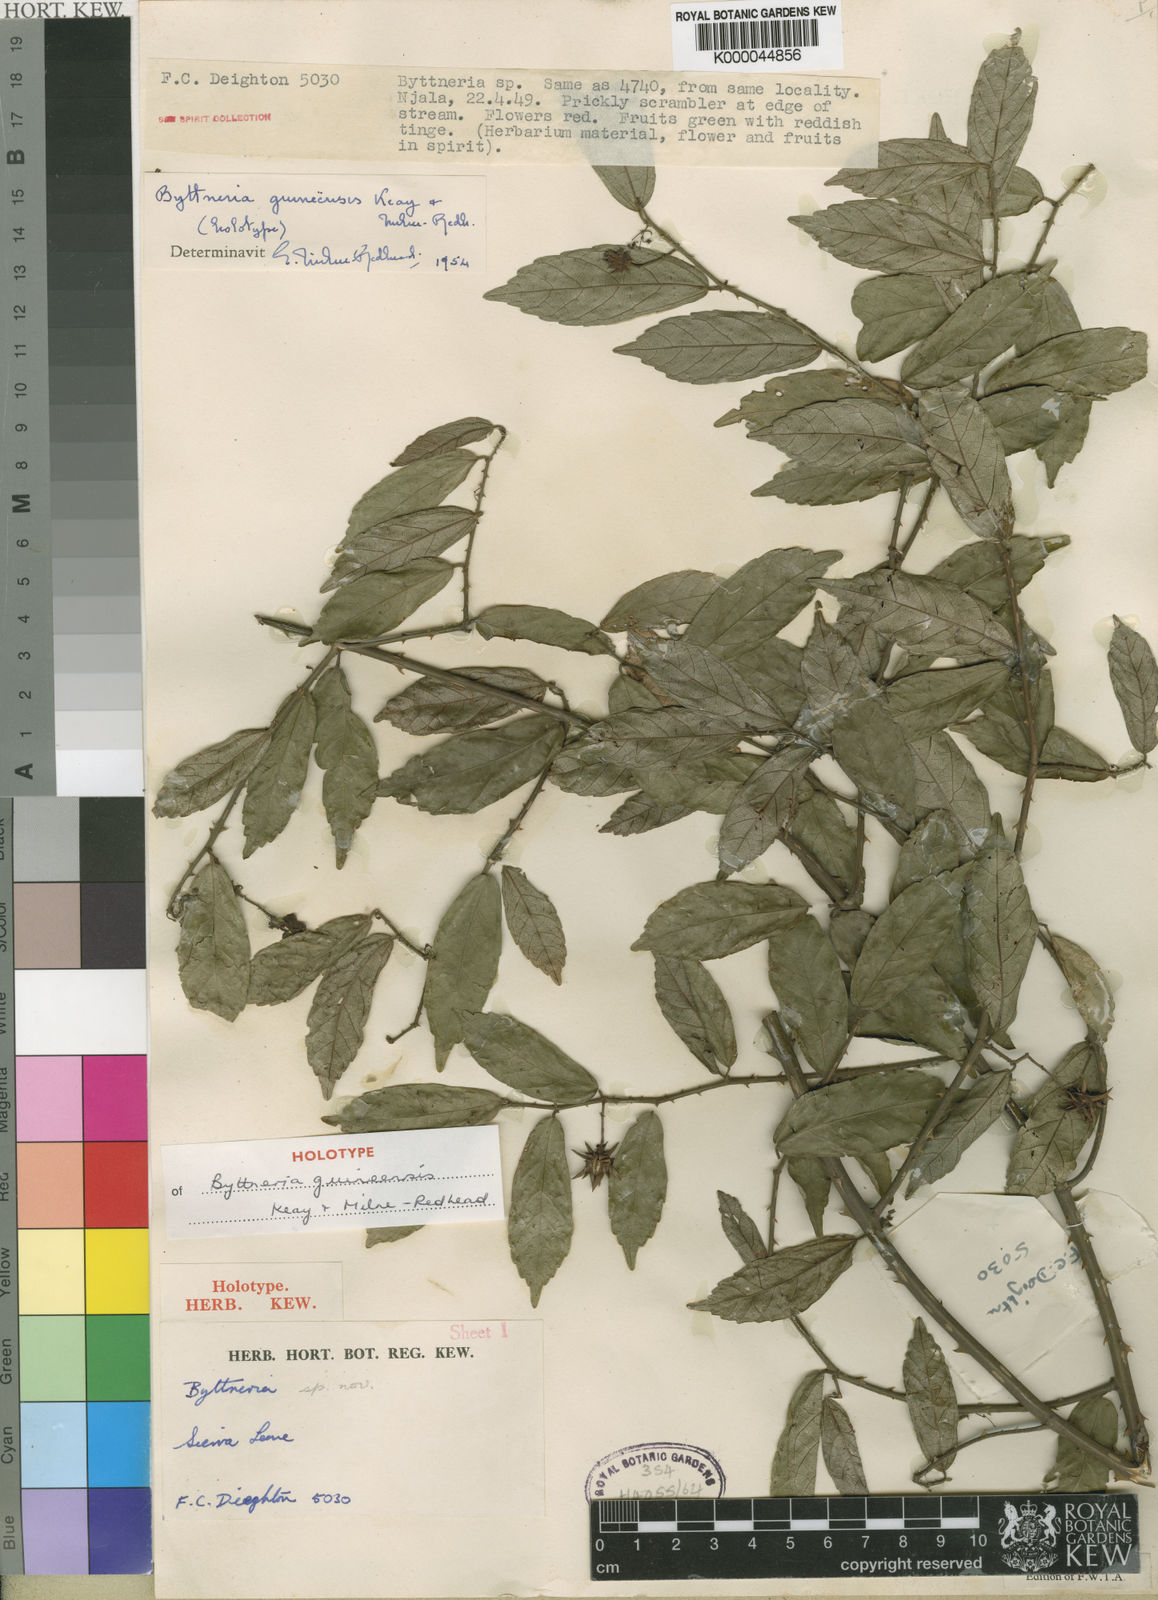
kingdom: Plantae
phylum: Tracheophyta
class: Magnoliopsida
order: Malvales
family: Malvaceae
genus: Byttneria
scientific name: Byttneria guineensis
